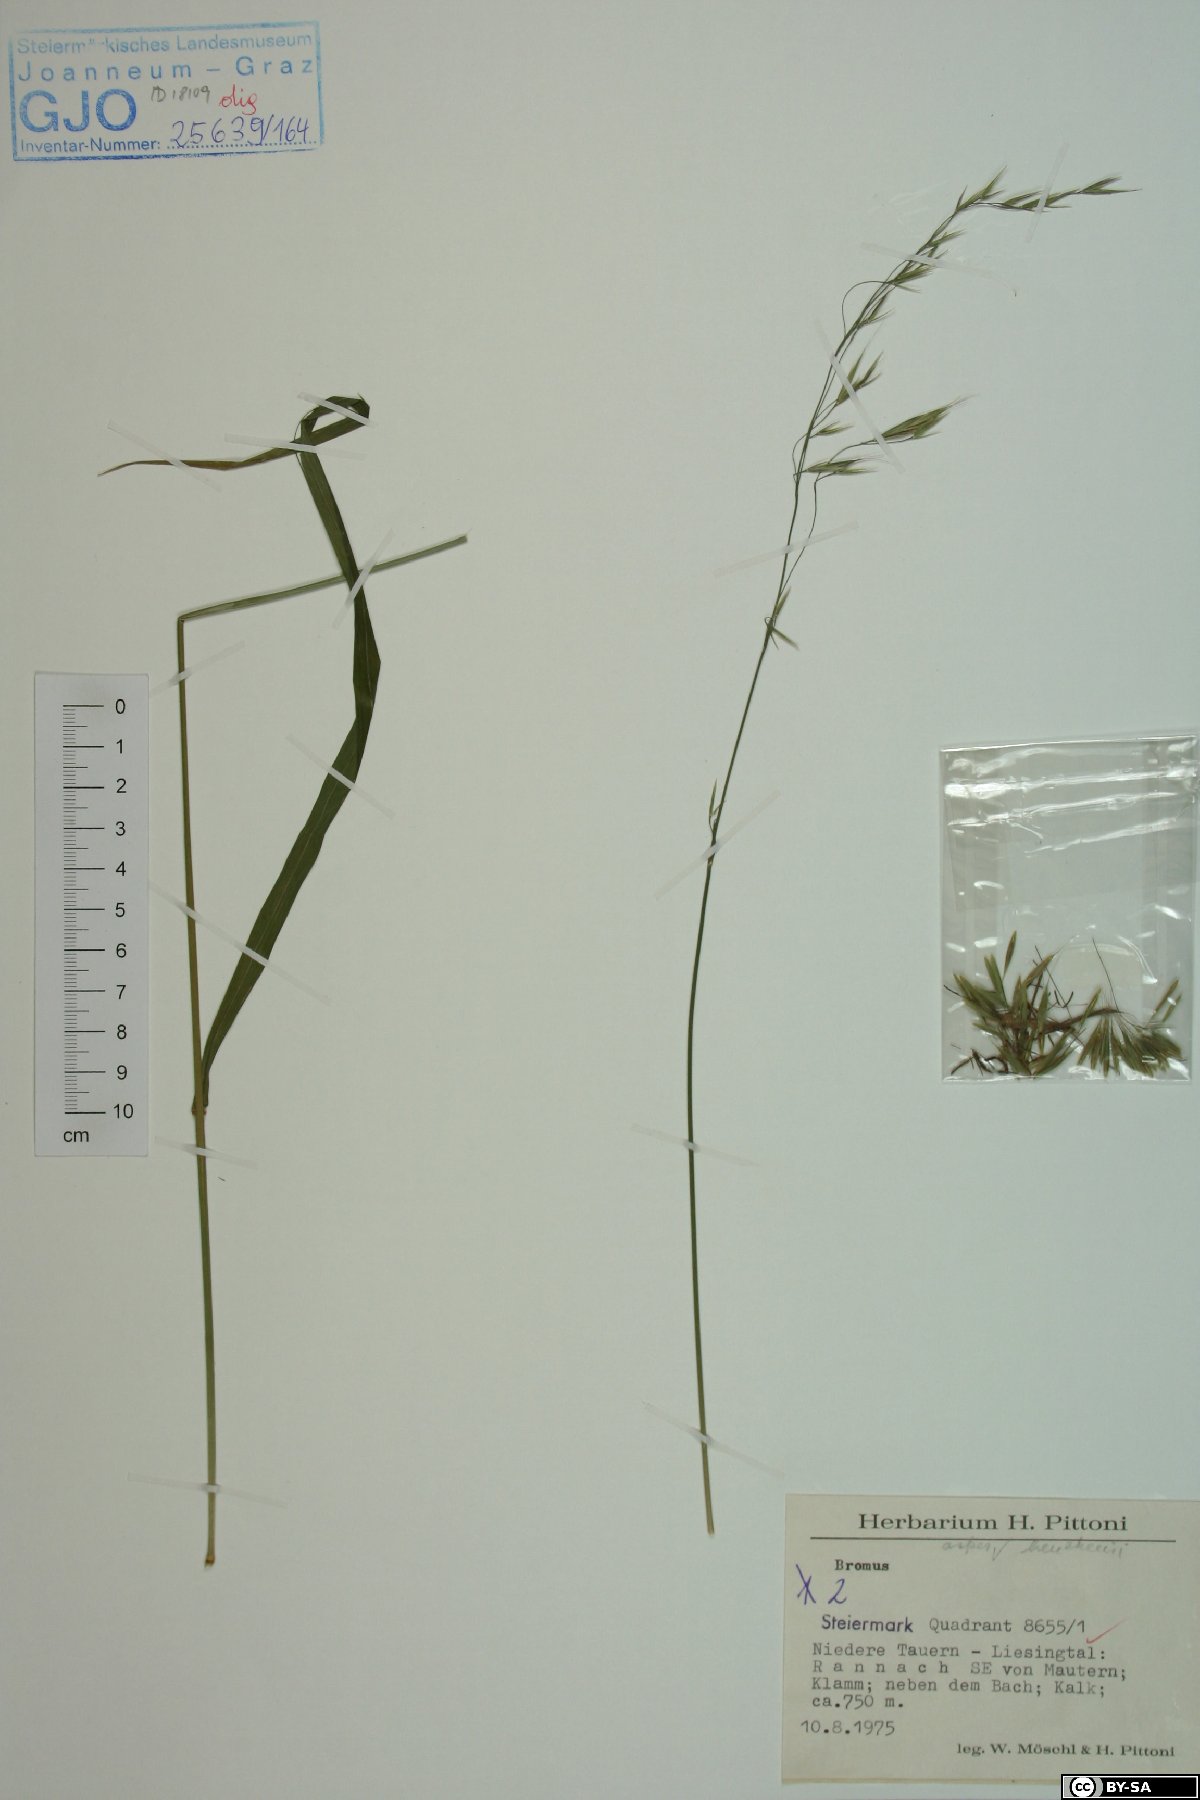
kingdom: Plantae
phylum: Tracheophyta
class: Liliopsida
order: Poales
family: Poaceae
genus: Brachypodium
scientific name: Brachypodium sylvaticum
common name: False-brome
